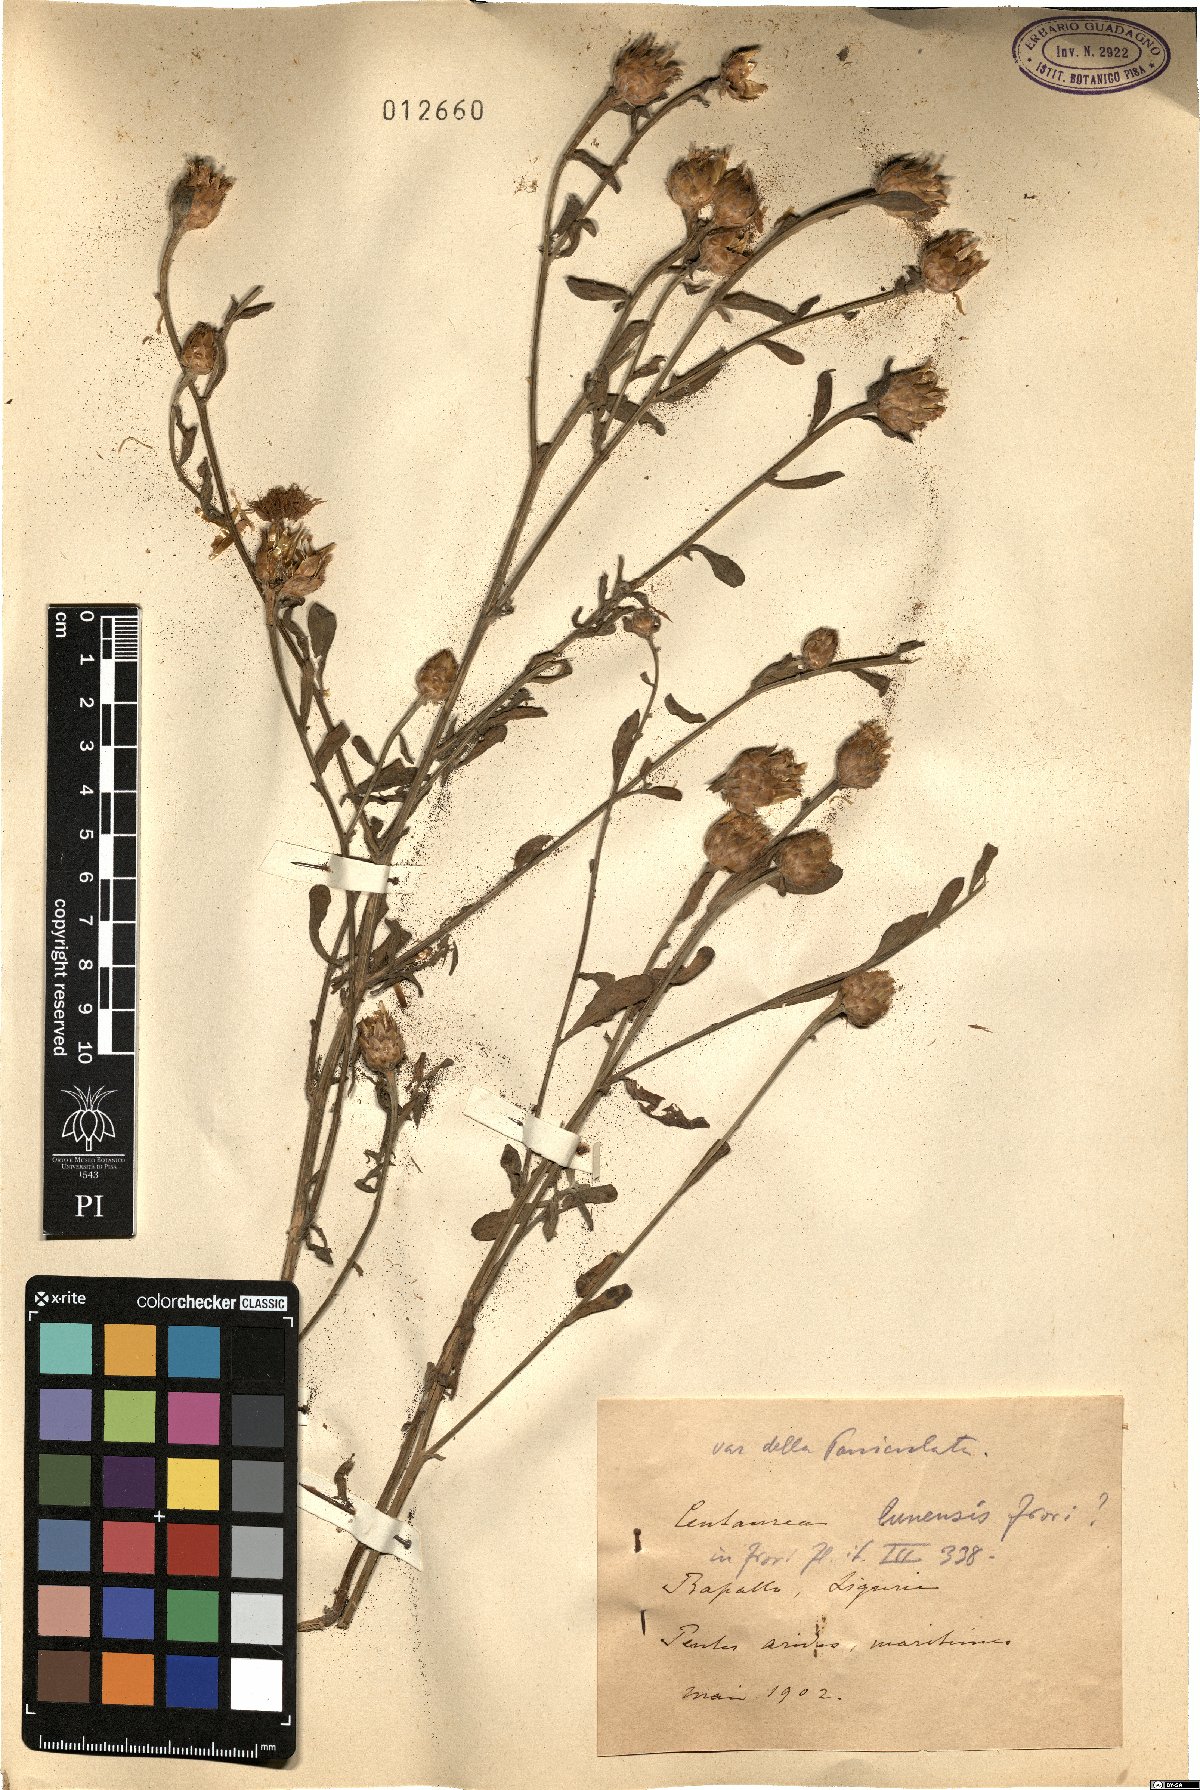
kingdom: Plantae
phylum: Tracheophyta
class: Magnoliopsida
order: Asterales
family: Asteraceae
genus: Centaurea
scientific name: Centaurea paniculata
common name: Jersey knapweed
